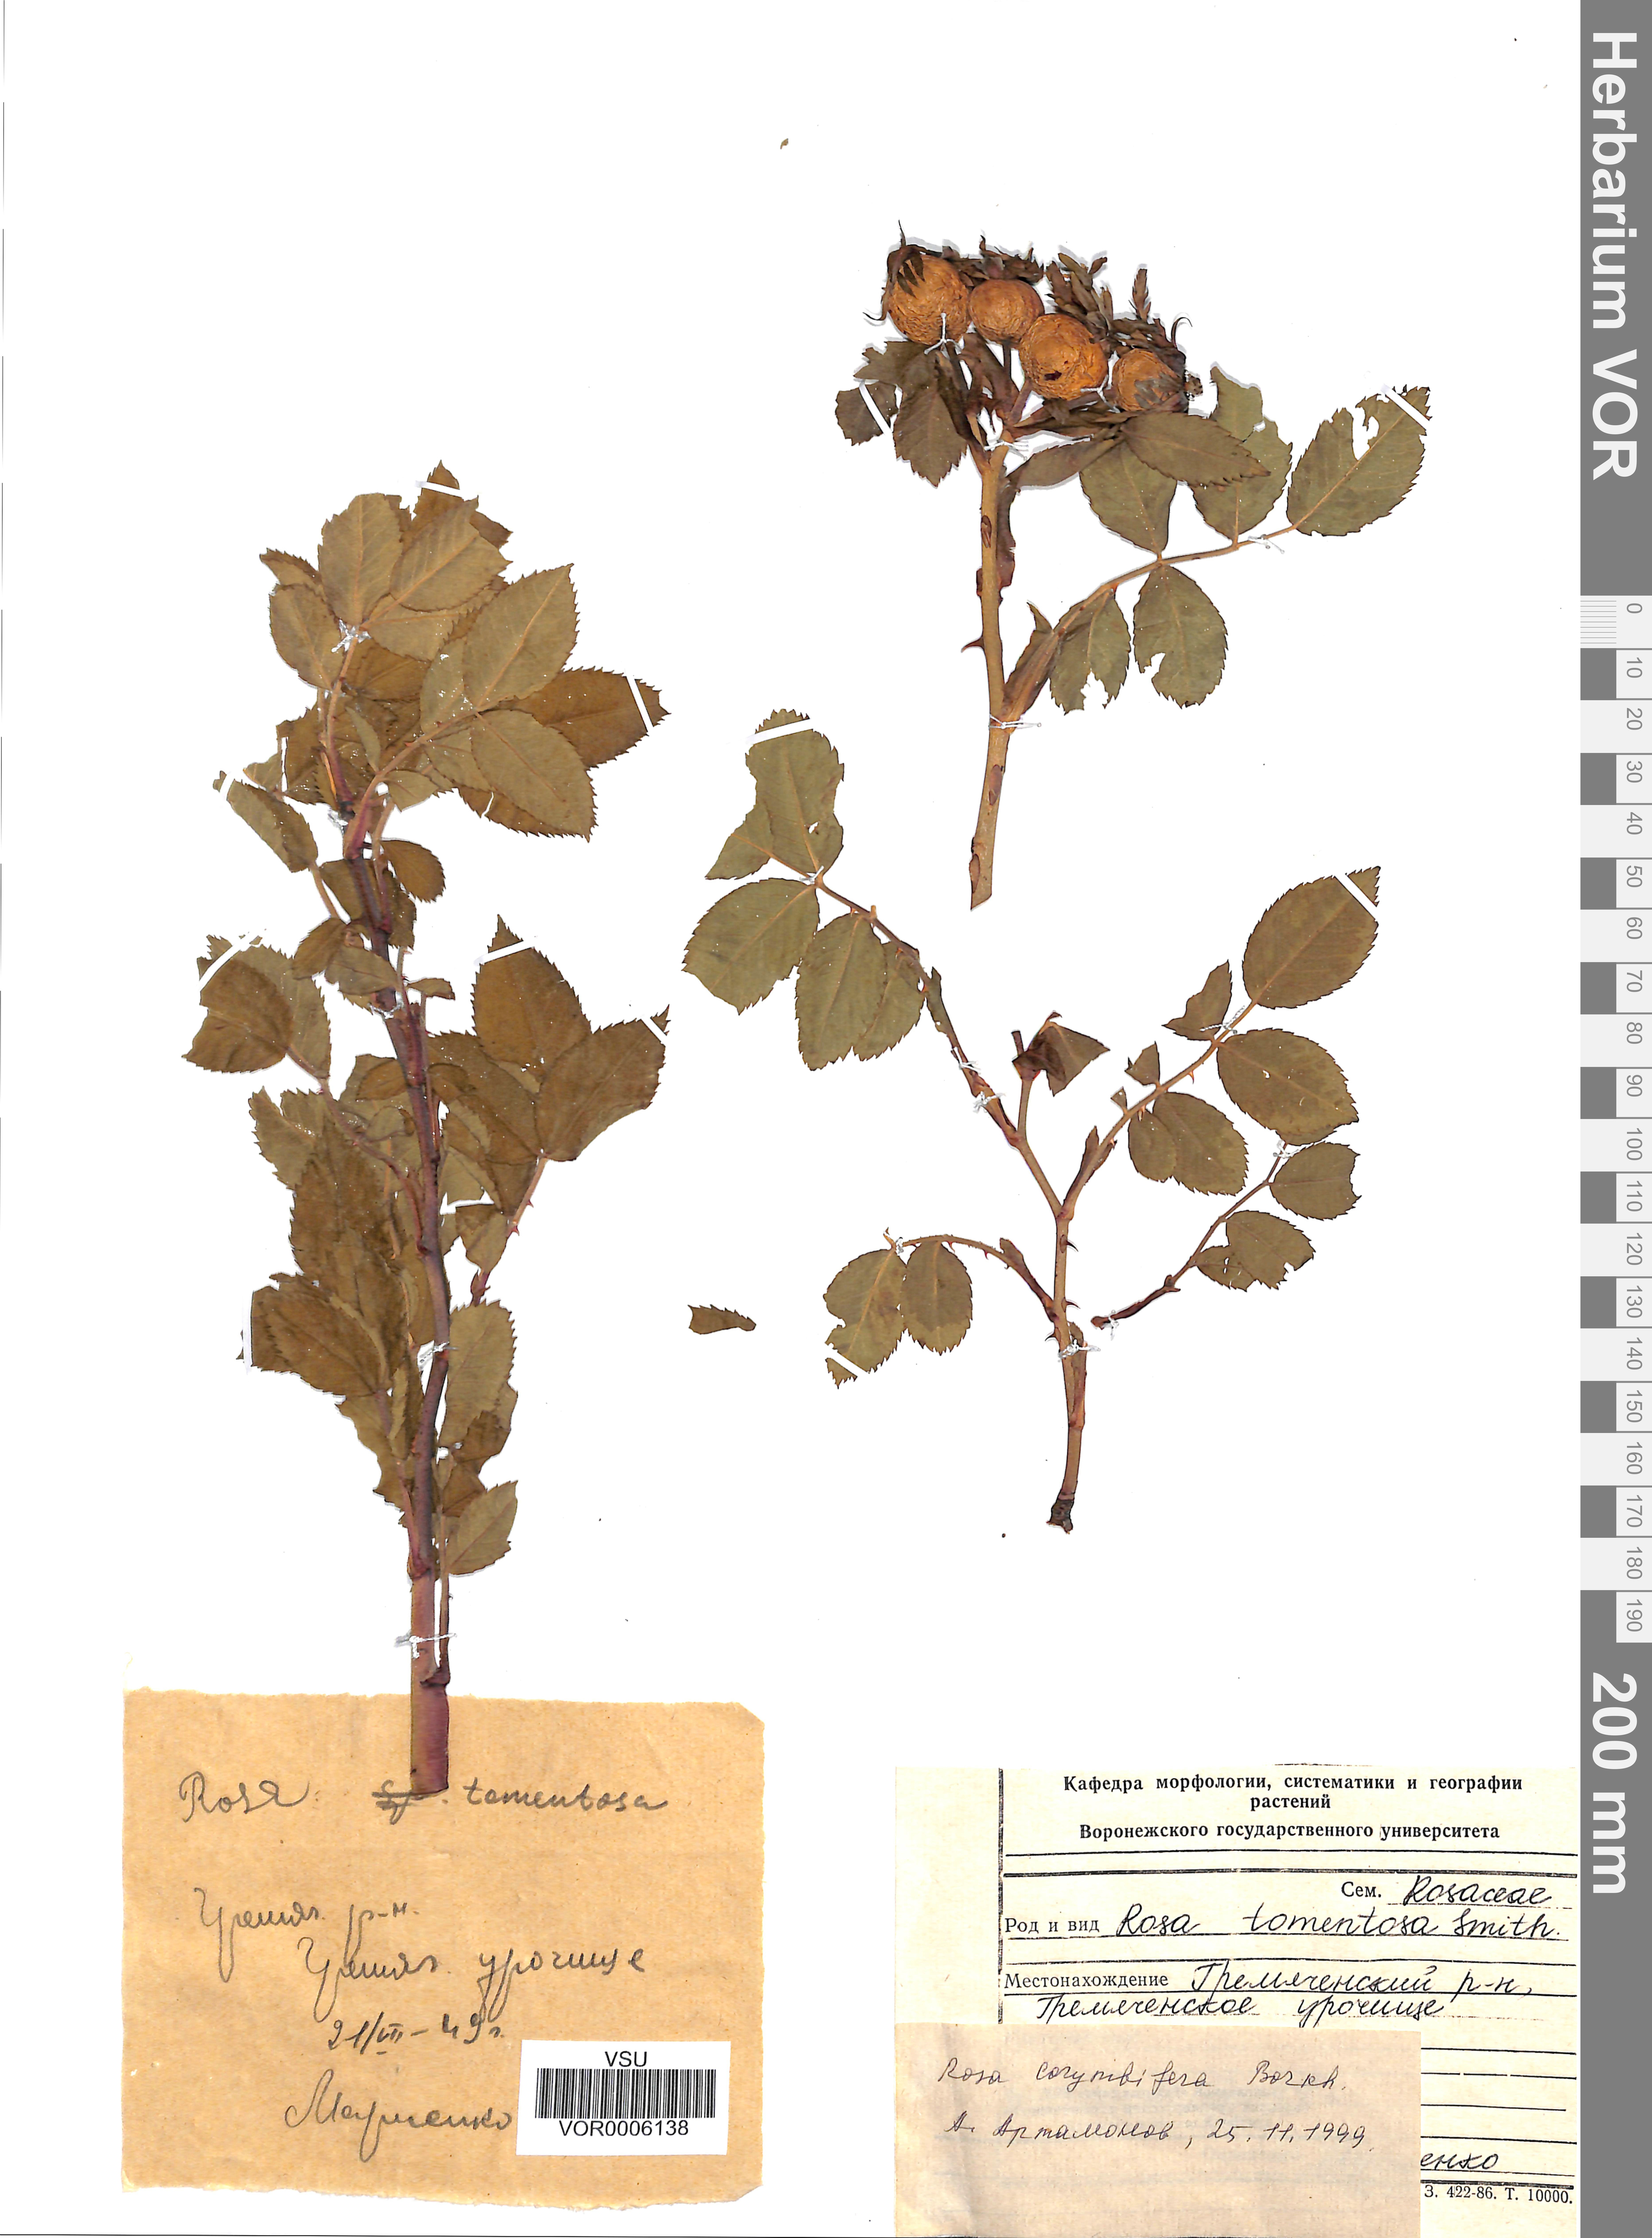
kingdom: Plantae
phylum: Tracheophyta
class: Magnoliopsida
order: Rosales
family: Rosaceae
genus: Rosa
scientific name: Rosa corymbifera
